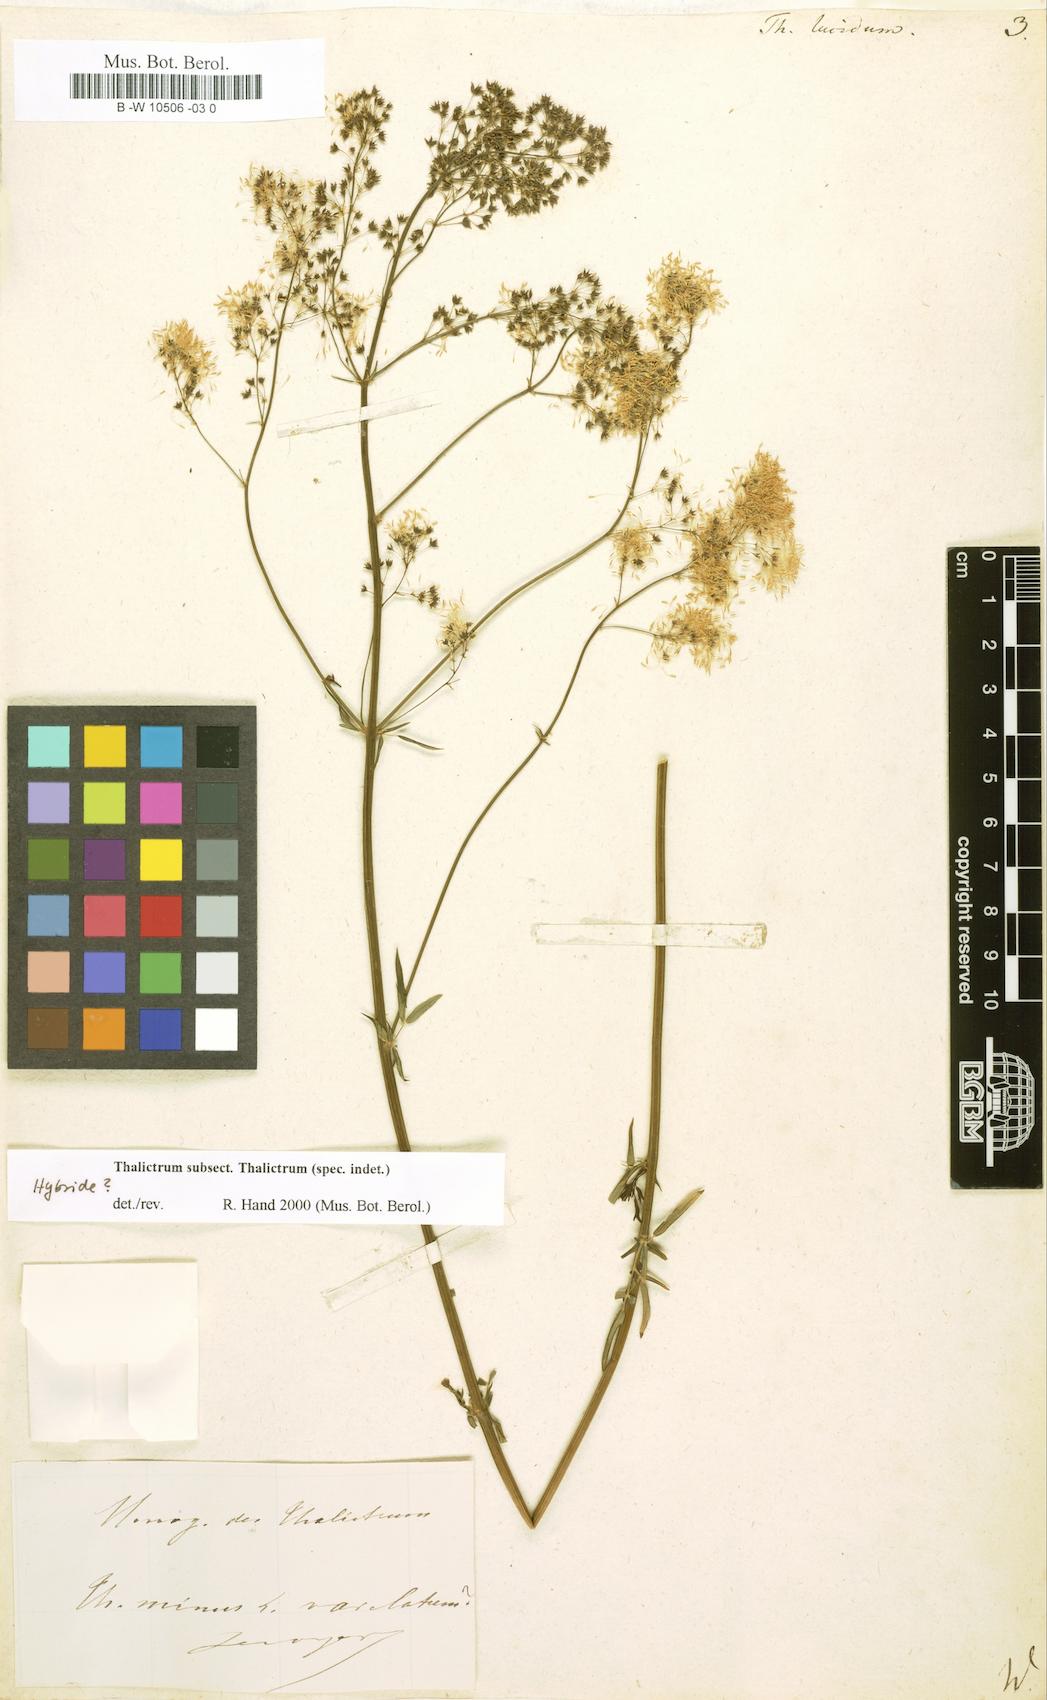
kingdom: Plantae
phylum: Tracheophyta
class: Magnoliopsida
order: Ranunculales
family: Ranunculaceae
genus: Thalictrum
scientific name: Thalictrum lucidum
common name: Shining meadow-rue
